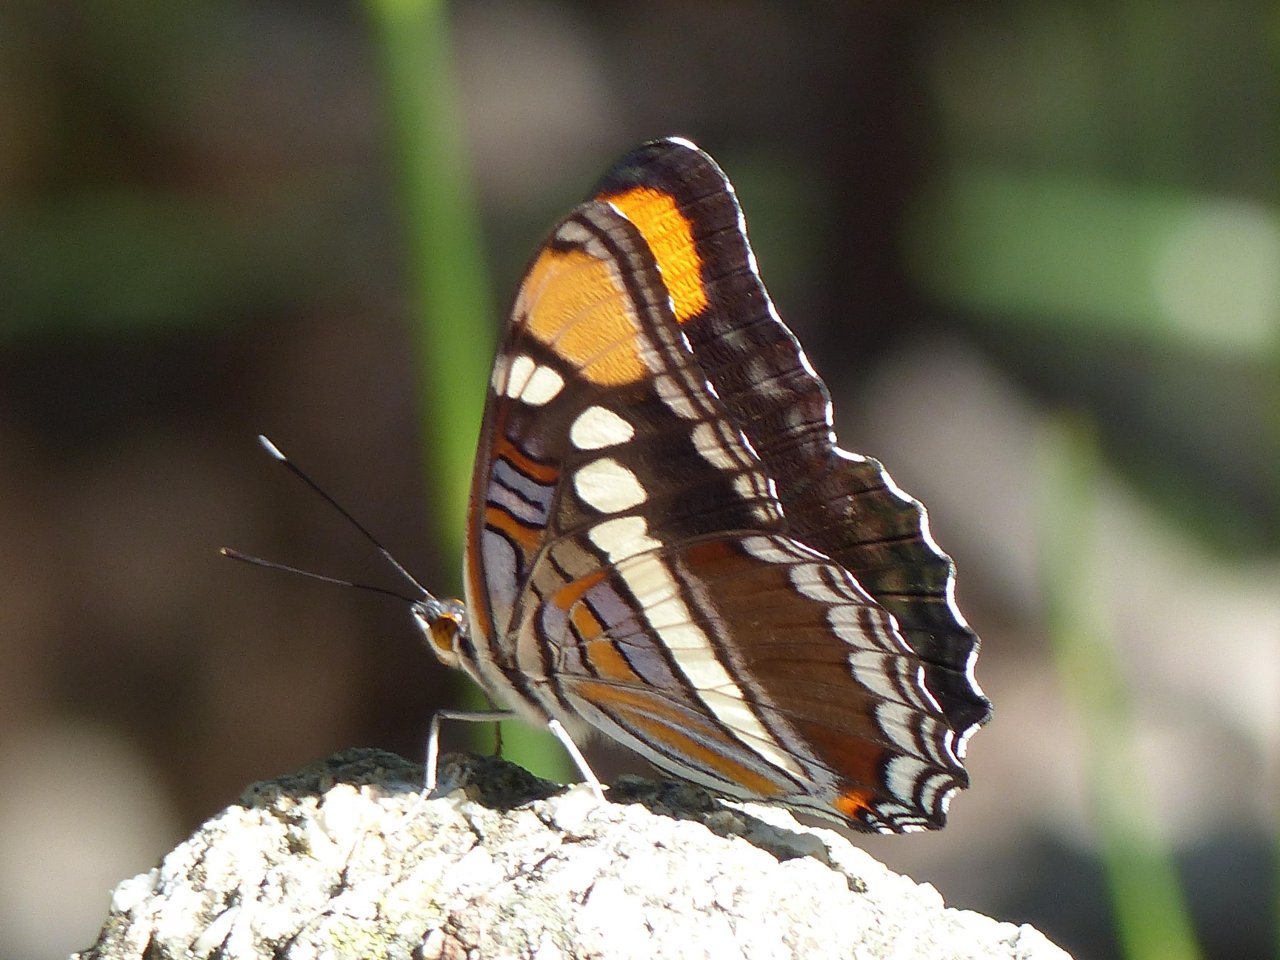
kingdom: Animalia
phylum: Arthropoda
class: Insecta
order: Lepidoptera
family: Nymphalidae
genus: Limenitis
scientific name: Limenitis bredowii
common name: Arizona Sister
